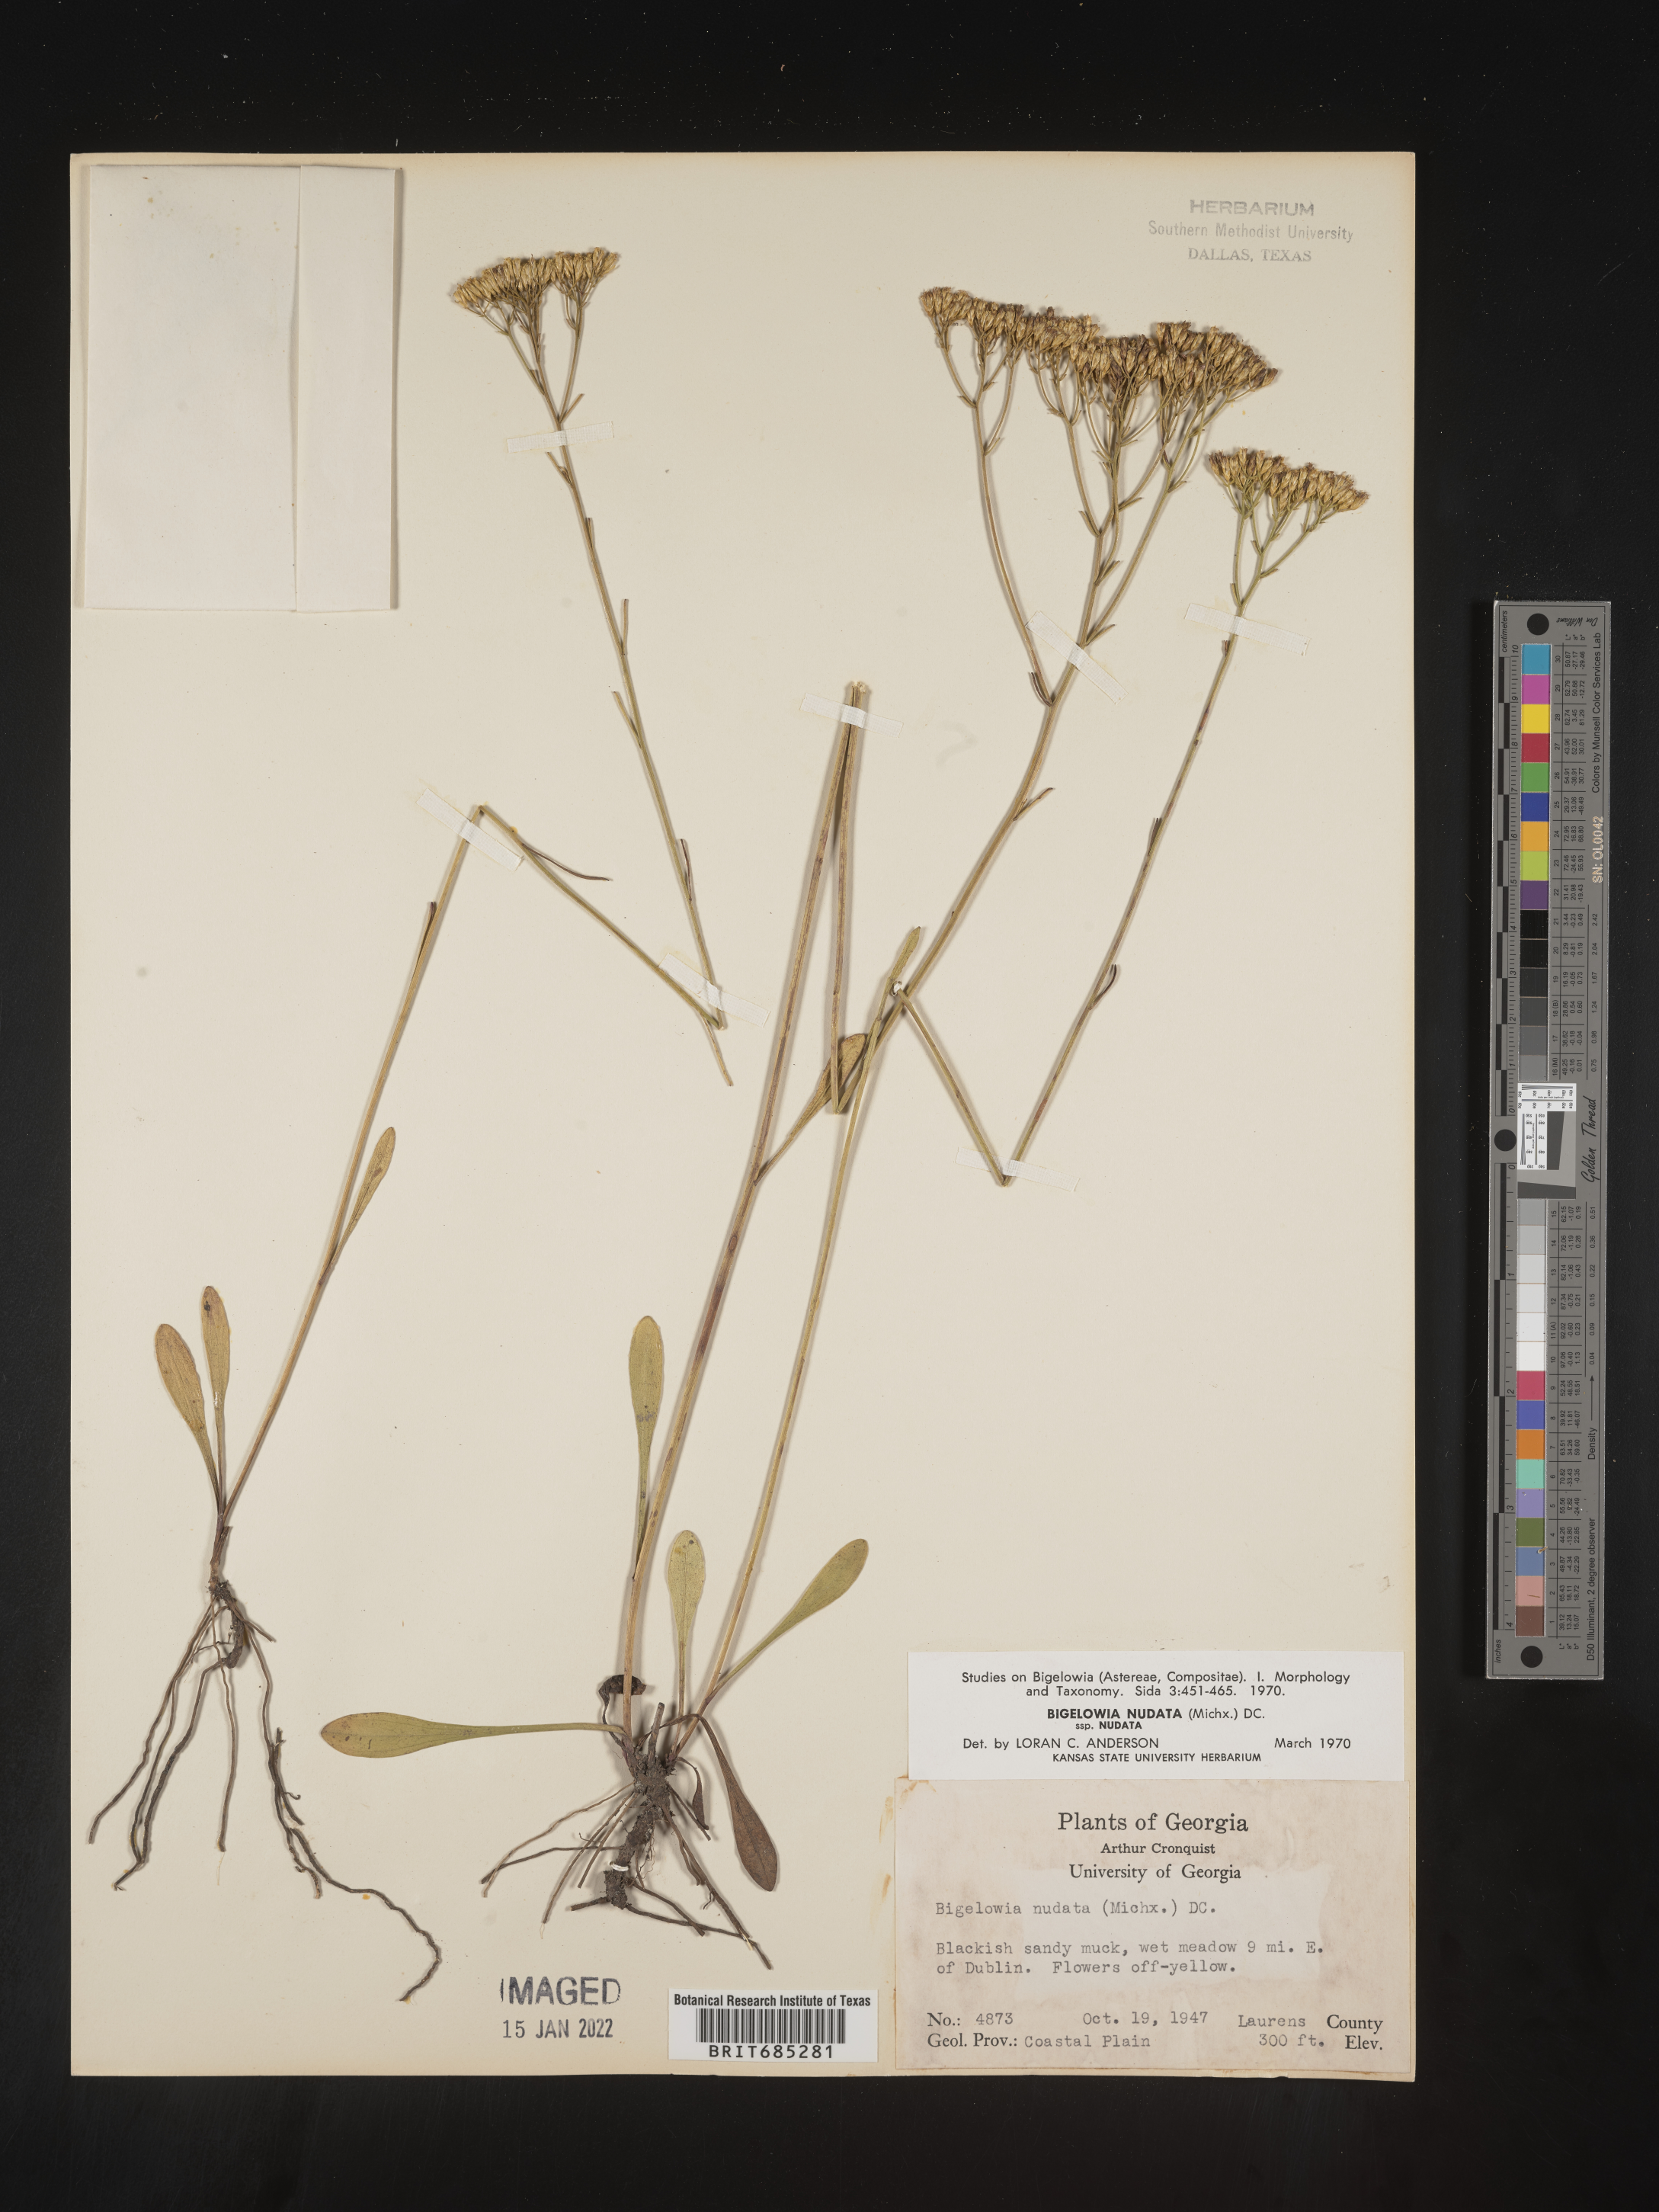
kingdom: Plantae
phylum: Tracheophyta
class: Magnoliopsida
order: Asterales
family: Asteraceae
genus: Bigelowia
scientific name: Bigelowia nudata
